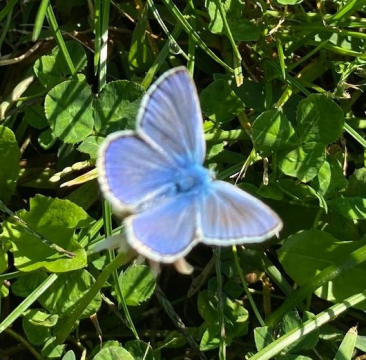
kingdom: Animalia
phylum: Arthropoda
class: Insecta
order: Lepidoptera
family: Lycaenidae
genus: Polyommatus
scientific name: Polyommatus icarus
